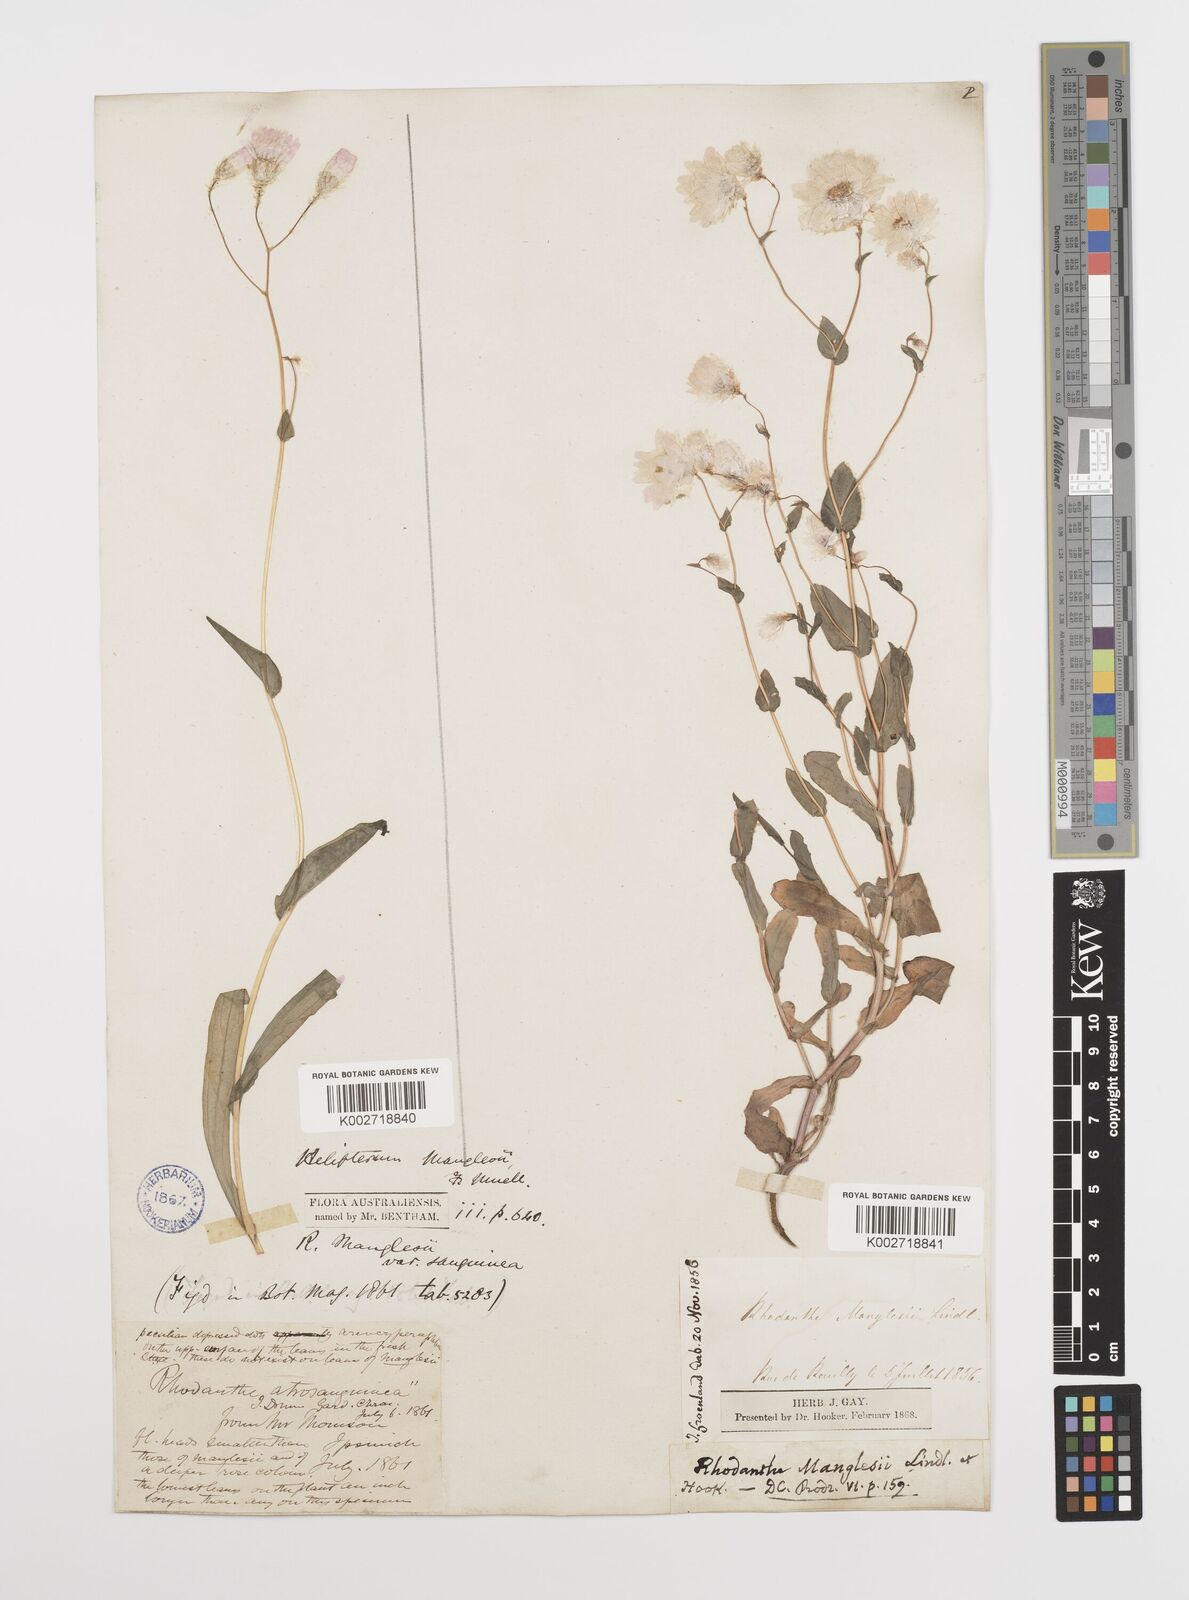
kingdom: Plantae
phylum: Tracheophyta
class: Magnoliopsida
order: Asterales
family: Asteraceae
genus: Rhodanthe
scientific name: Rhodanthe manglesii
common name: Pink sunray
